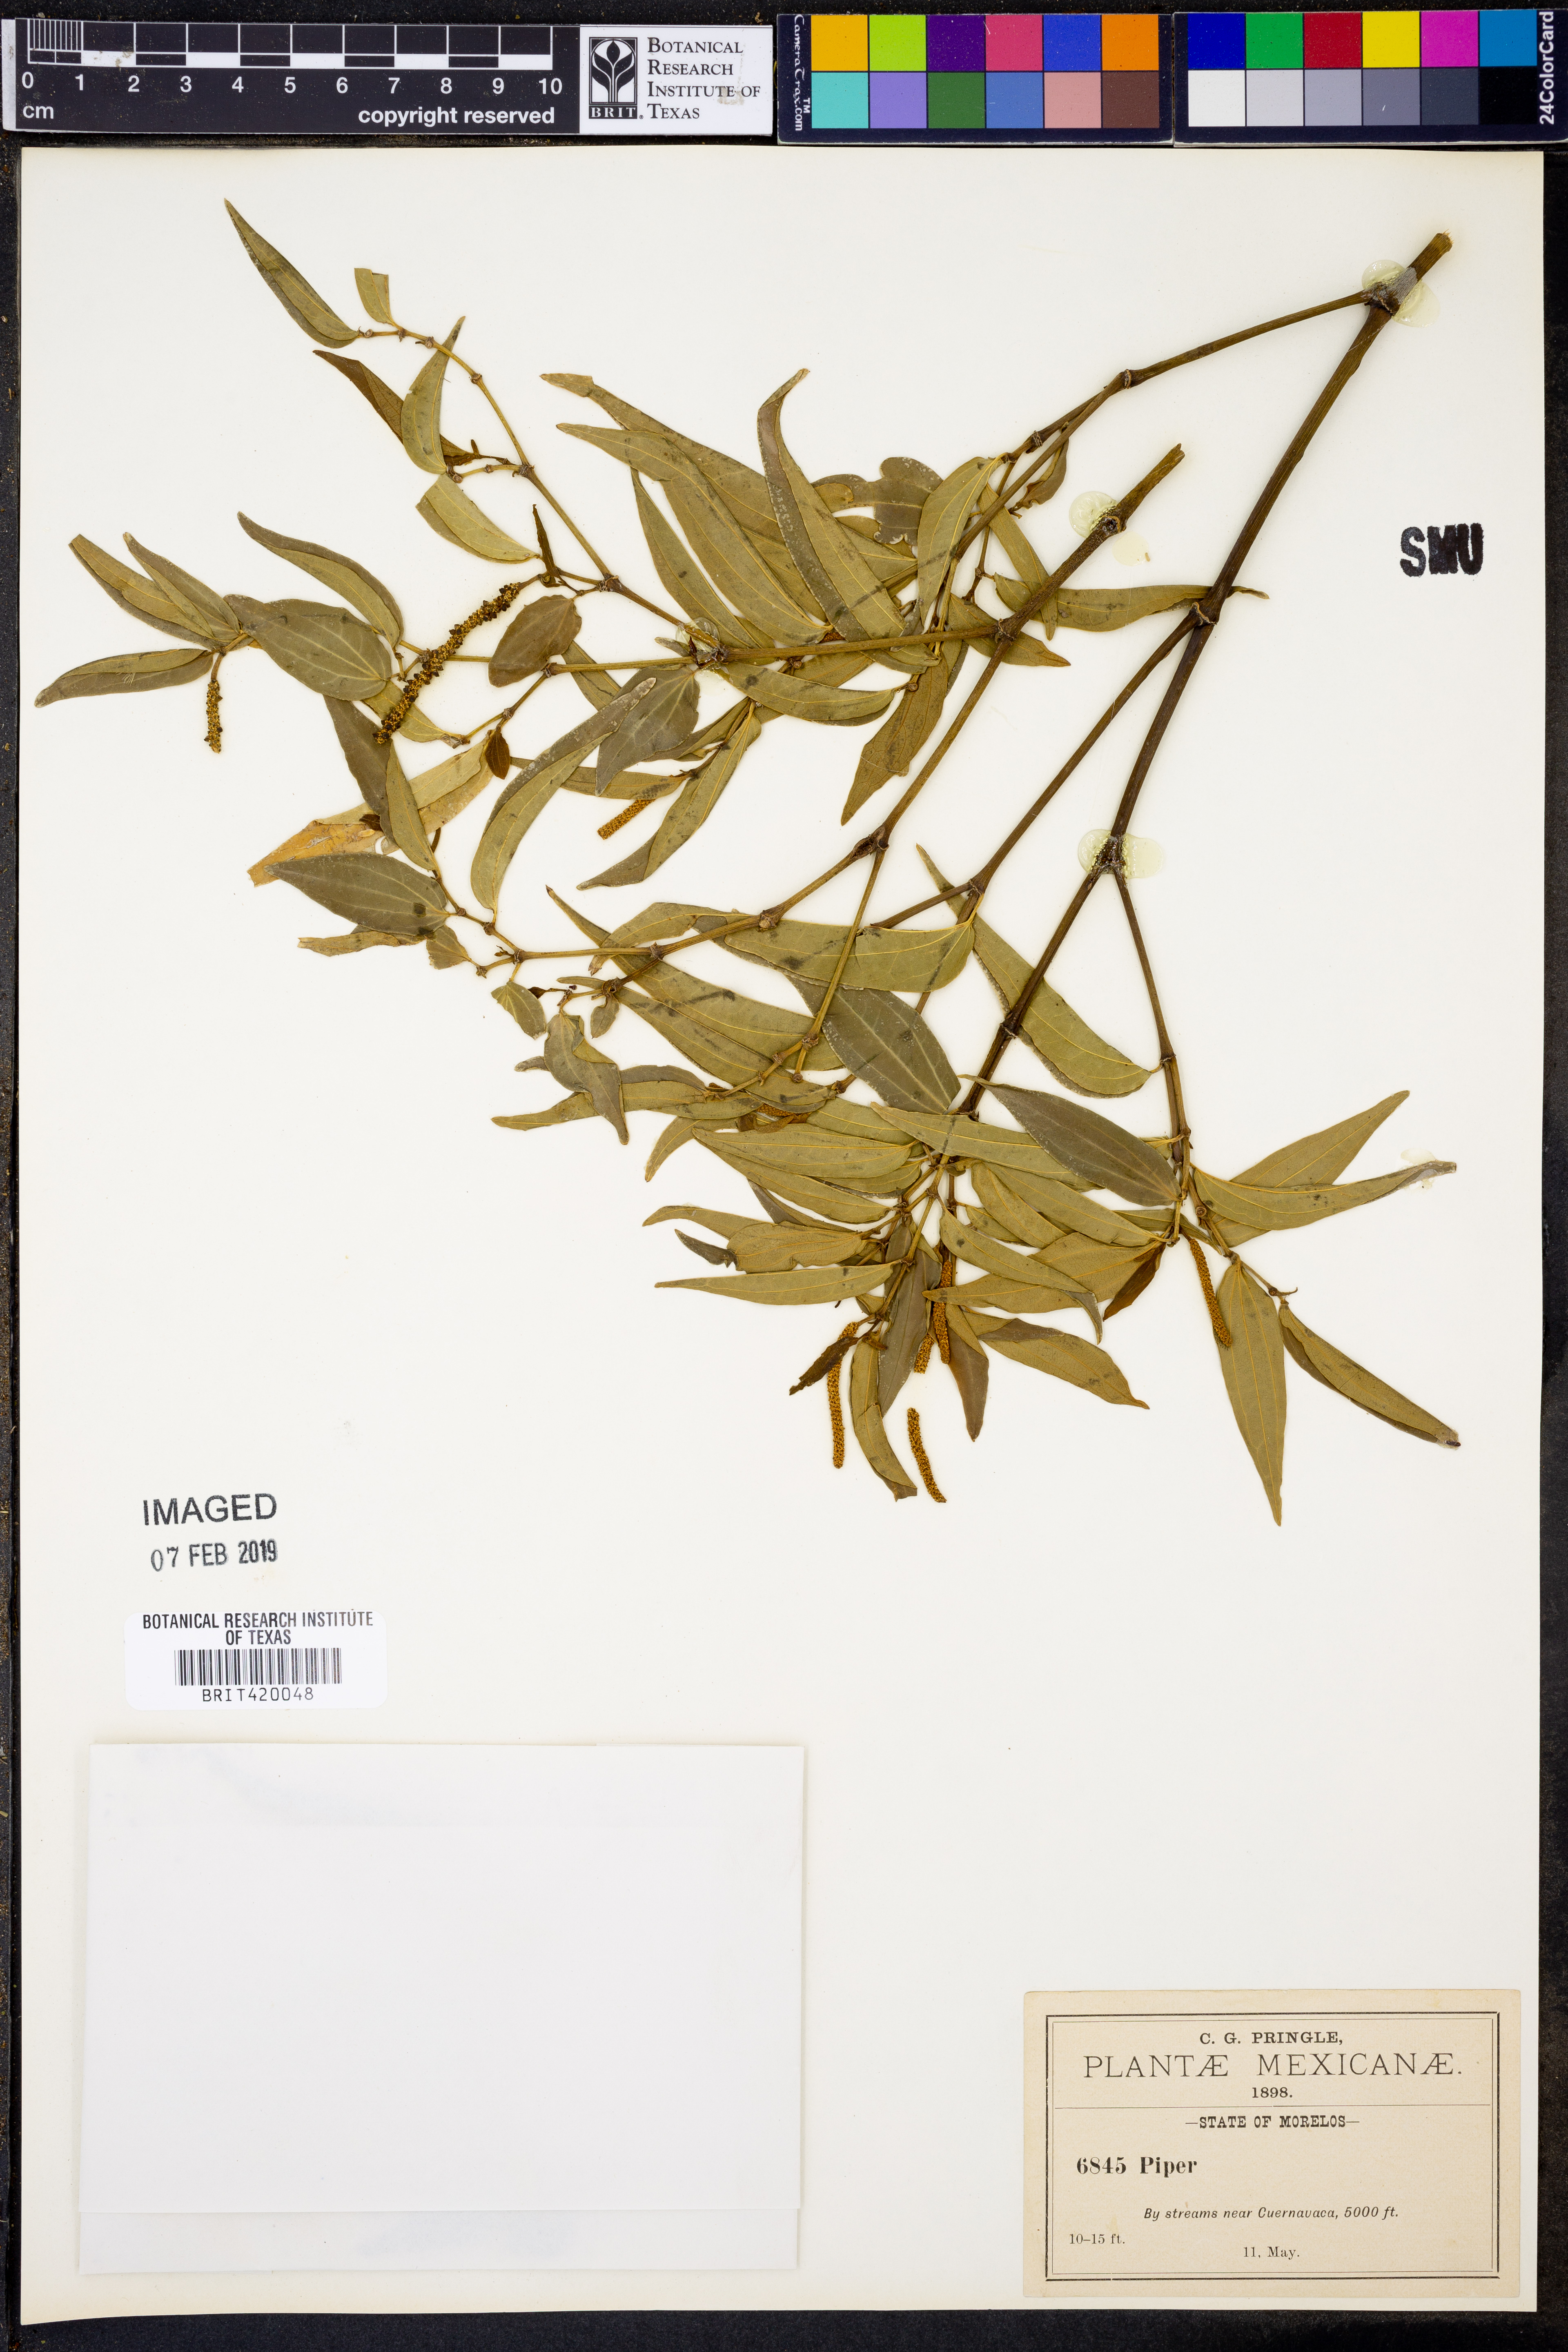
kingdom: Plantae
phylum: Tracheophyta
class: Magnoliopsida
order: Piperales
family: Piperaceae
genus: Piper
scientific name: Piper
